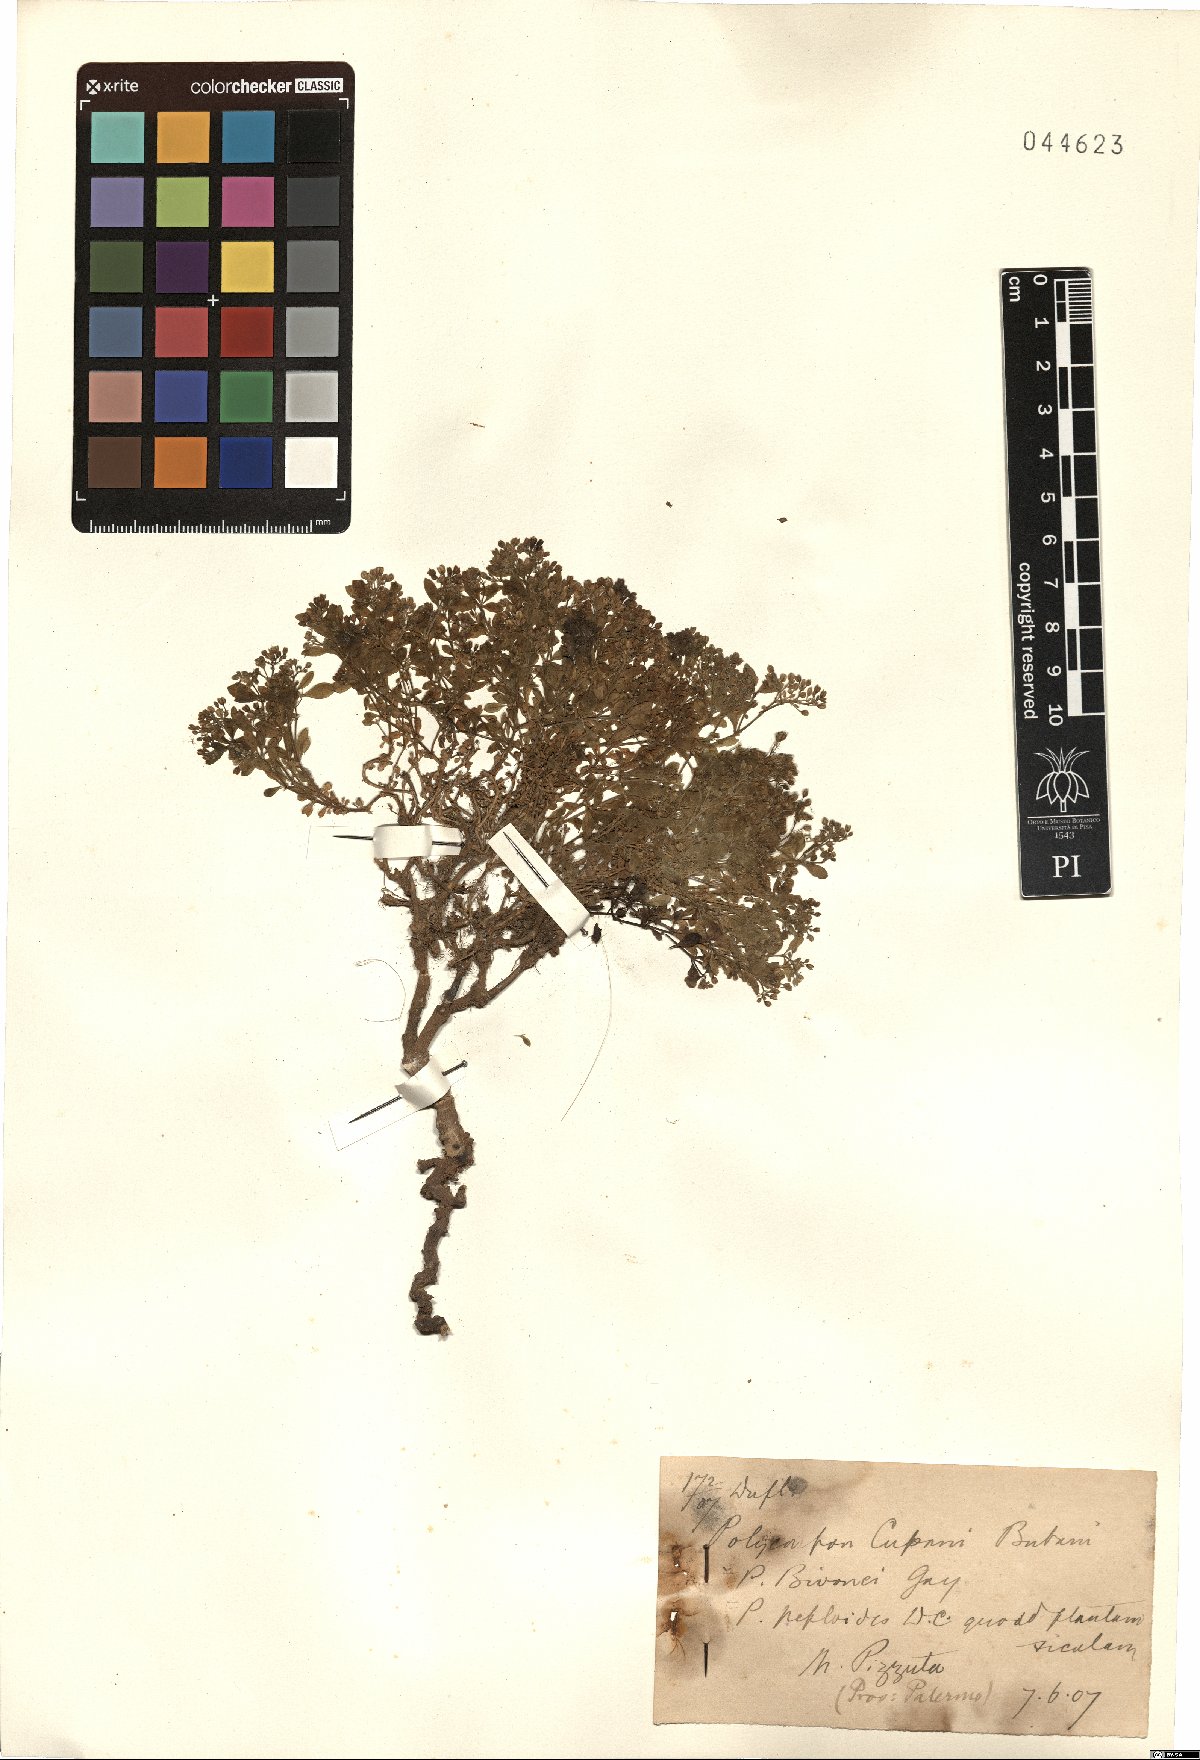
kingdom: Plantae
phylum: Tracheophyta
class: Magnoliopsida
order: Caryophyllales
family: Caryophyllaceae
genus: Polycarpon
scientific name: Polycarpon polycarpoides
